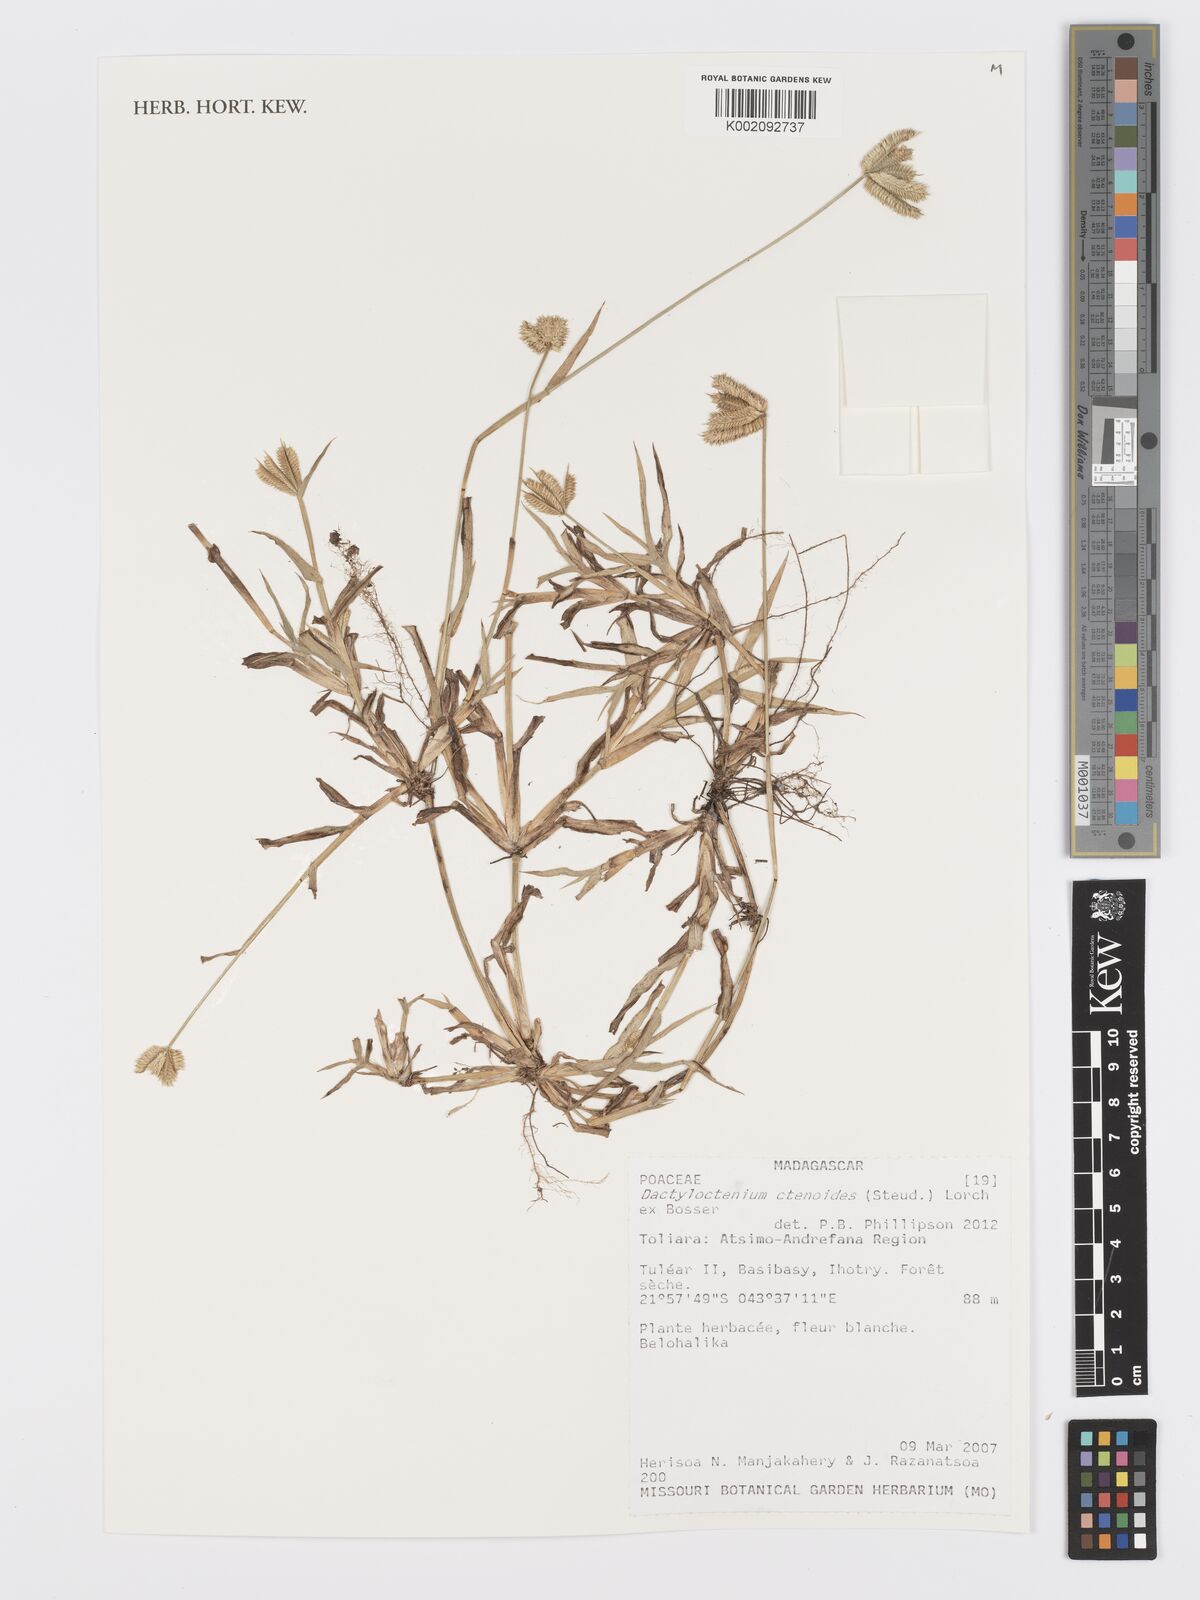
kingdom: Plantae
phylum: Tracheophyta
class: Liliopsida
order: Poales
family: Poaceae
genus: Dactyloctenium
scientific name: Dactyloctenium ctenoides
